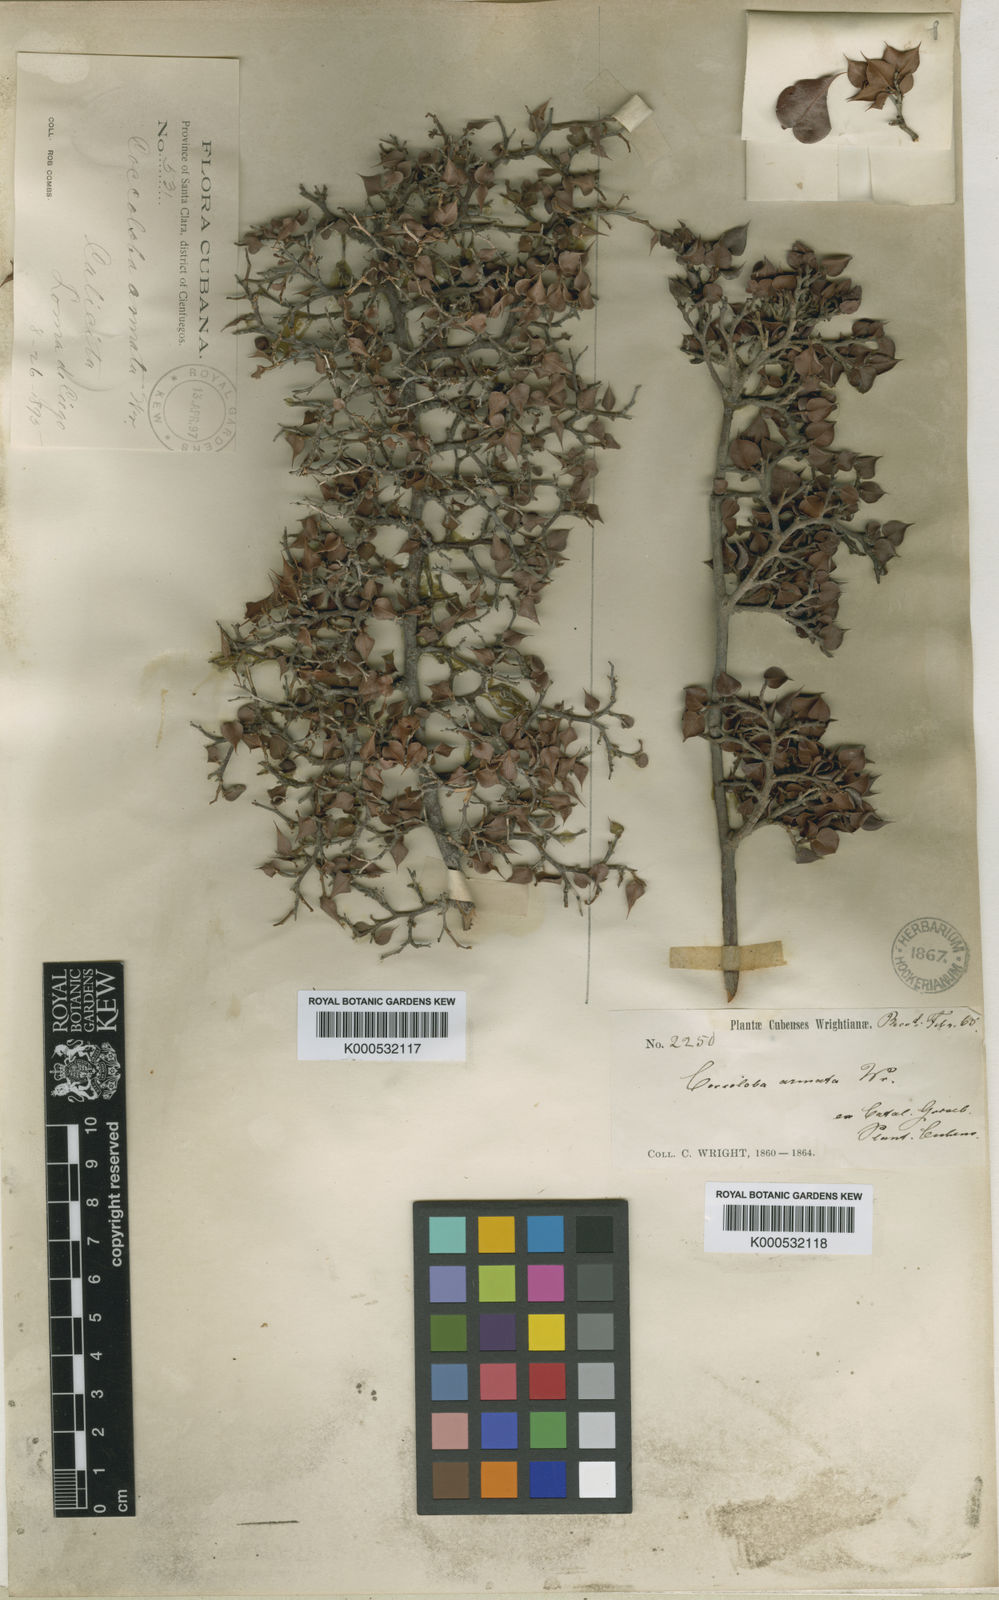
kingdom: Plantae
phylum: Tracheophyta
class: Magnoliopsida
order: Caryophyllales
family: Polygonaceae
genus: Coccoloba
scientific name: Coccoloba armata
